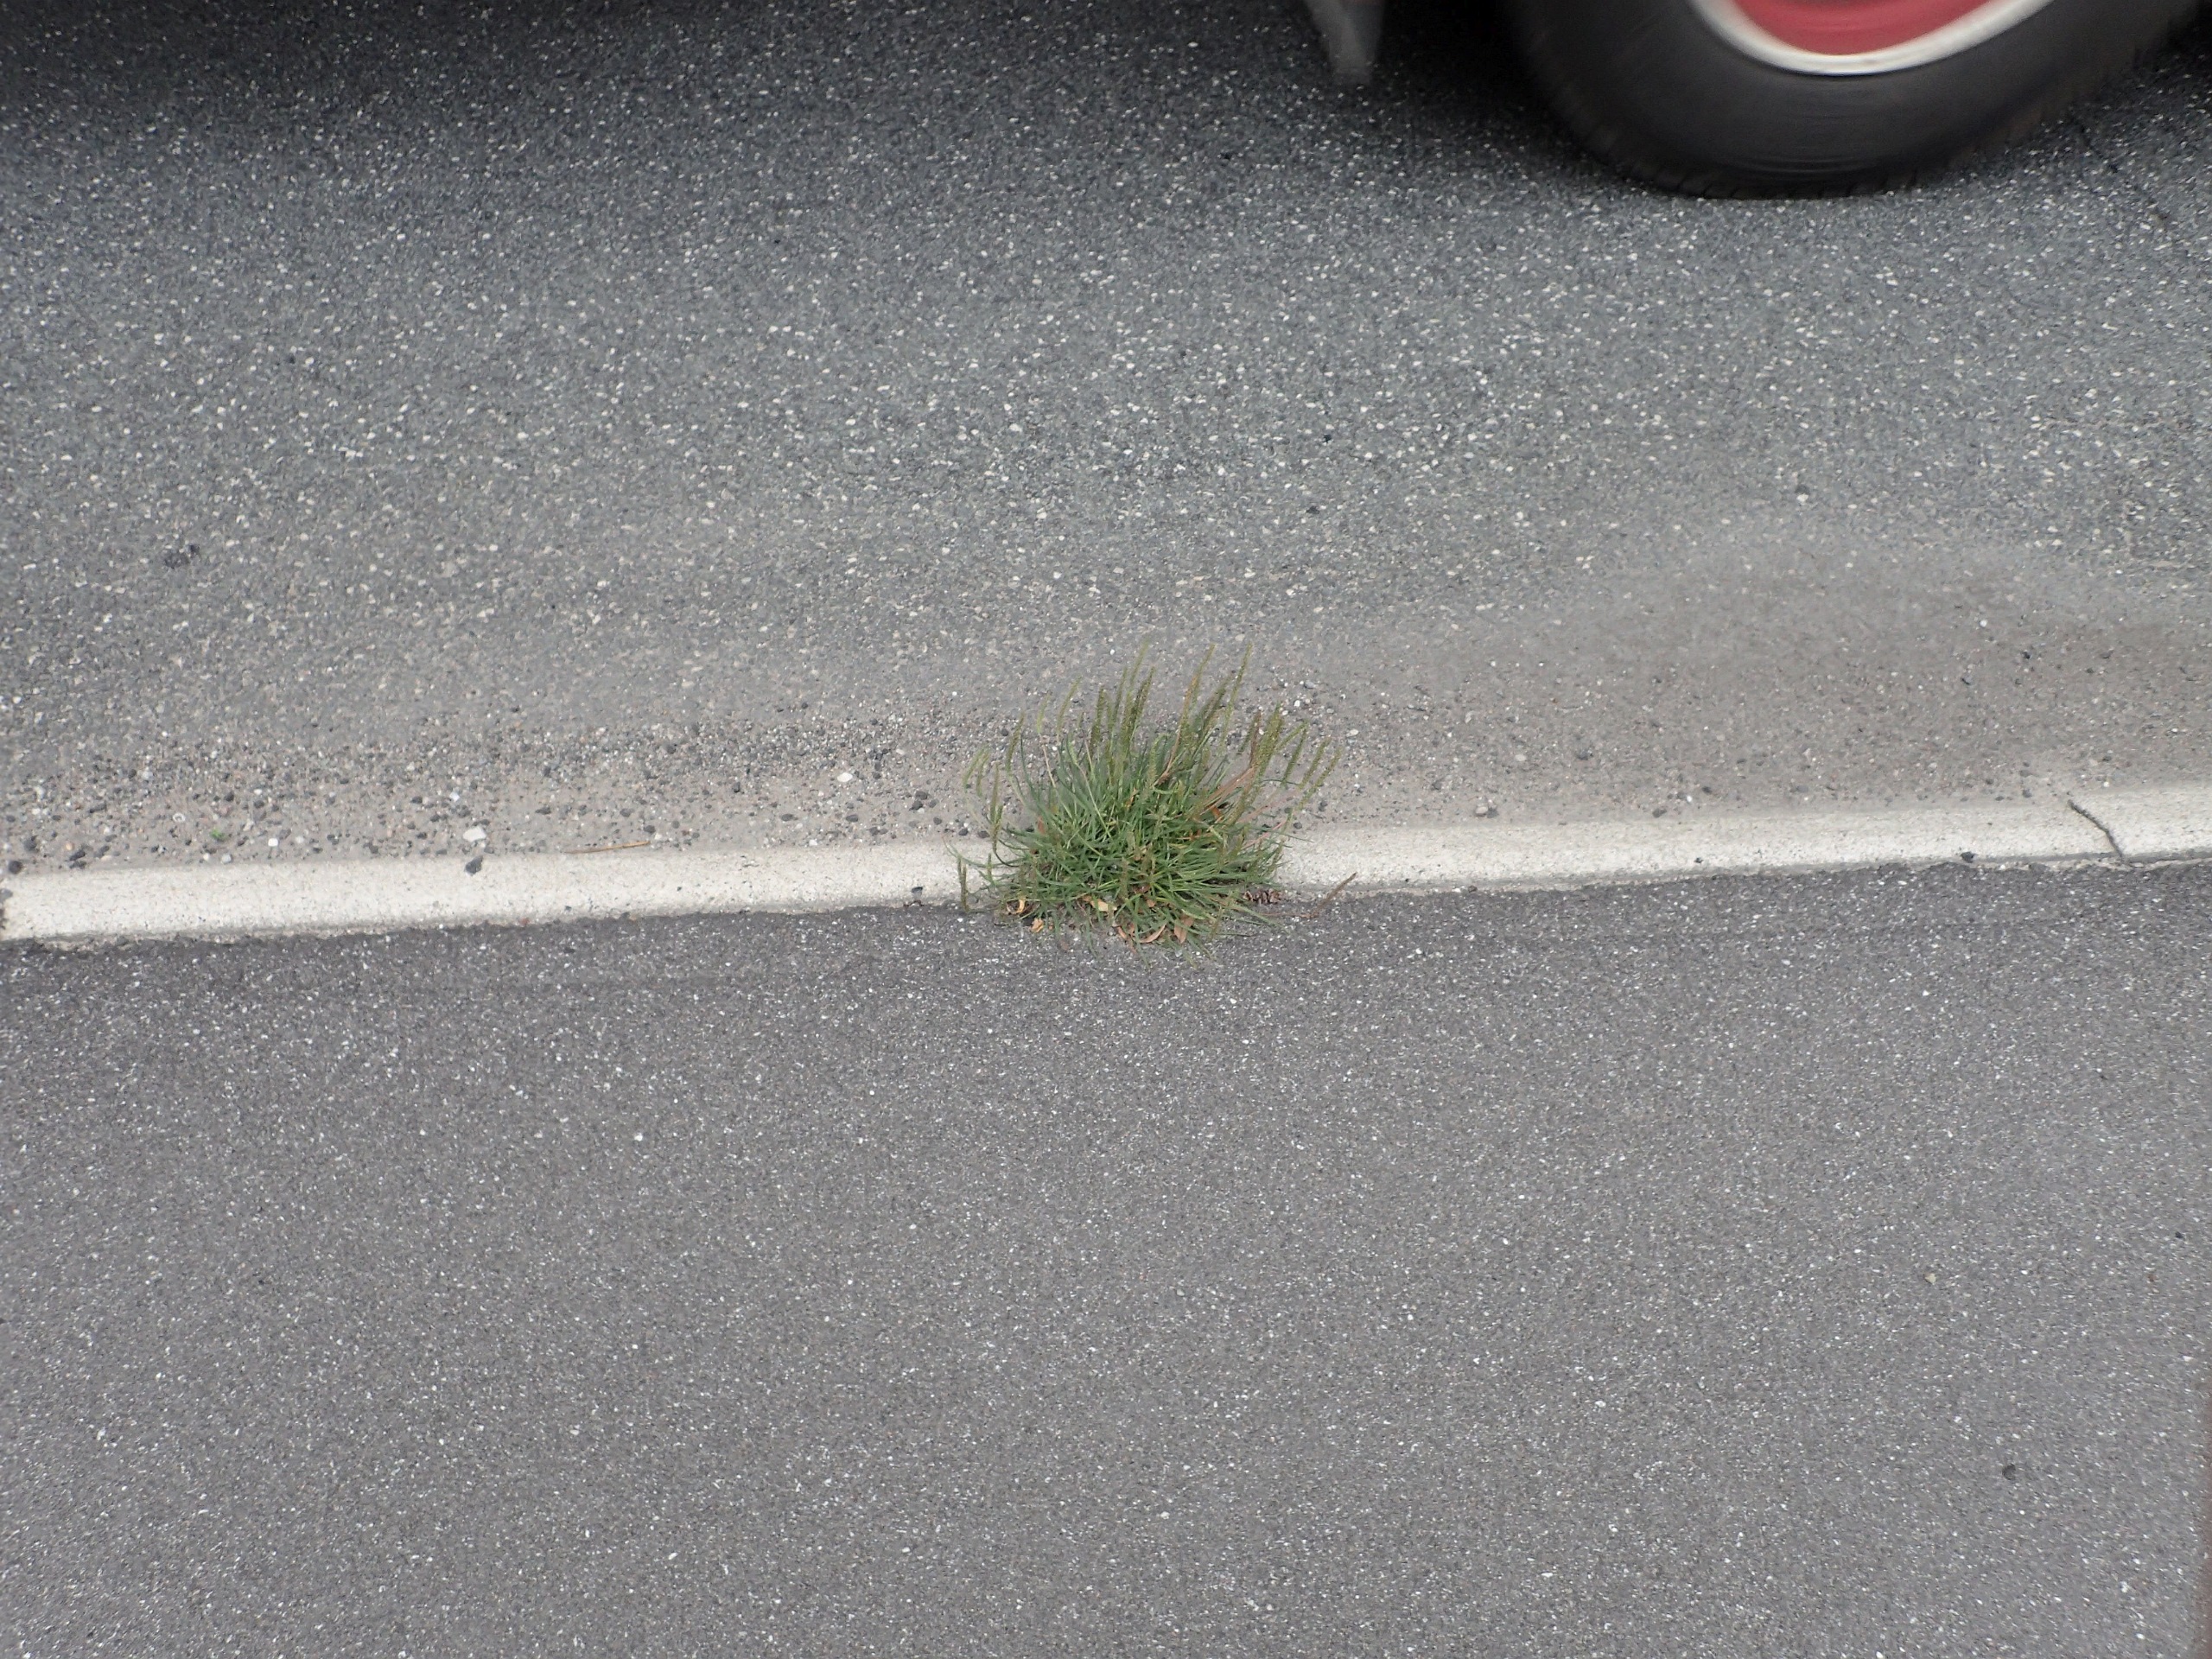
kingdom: Plantae
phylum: Tracheophyta
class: Magnoliopsida
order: Lamiales
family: Plantaginaceae
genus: Plantago
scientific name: Plantago maritima
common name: Strand-vejbred
